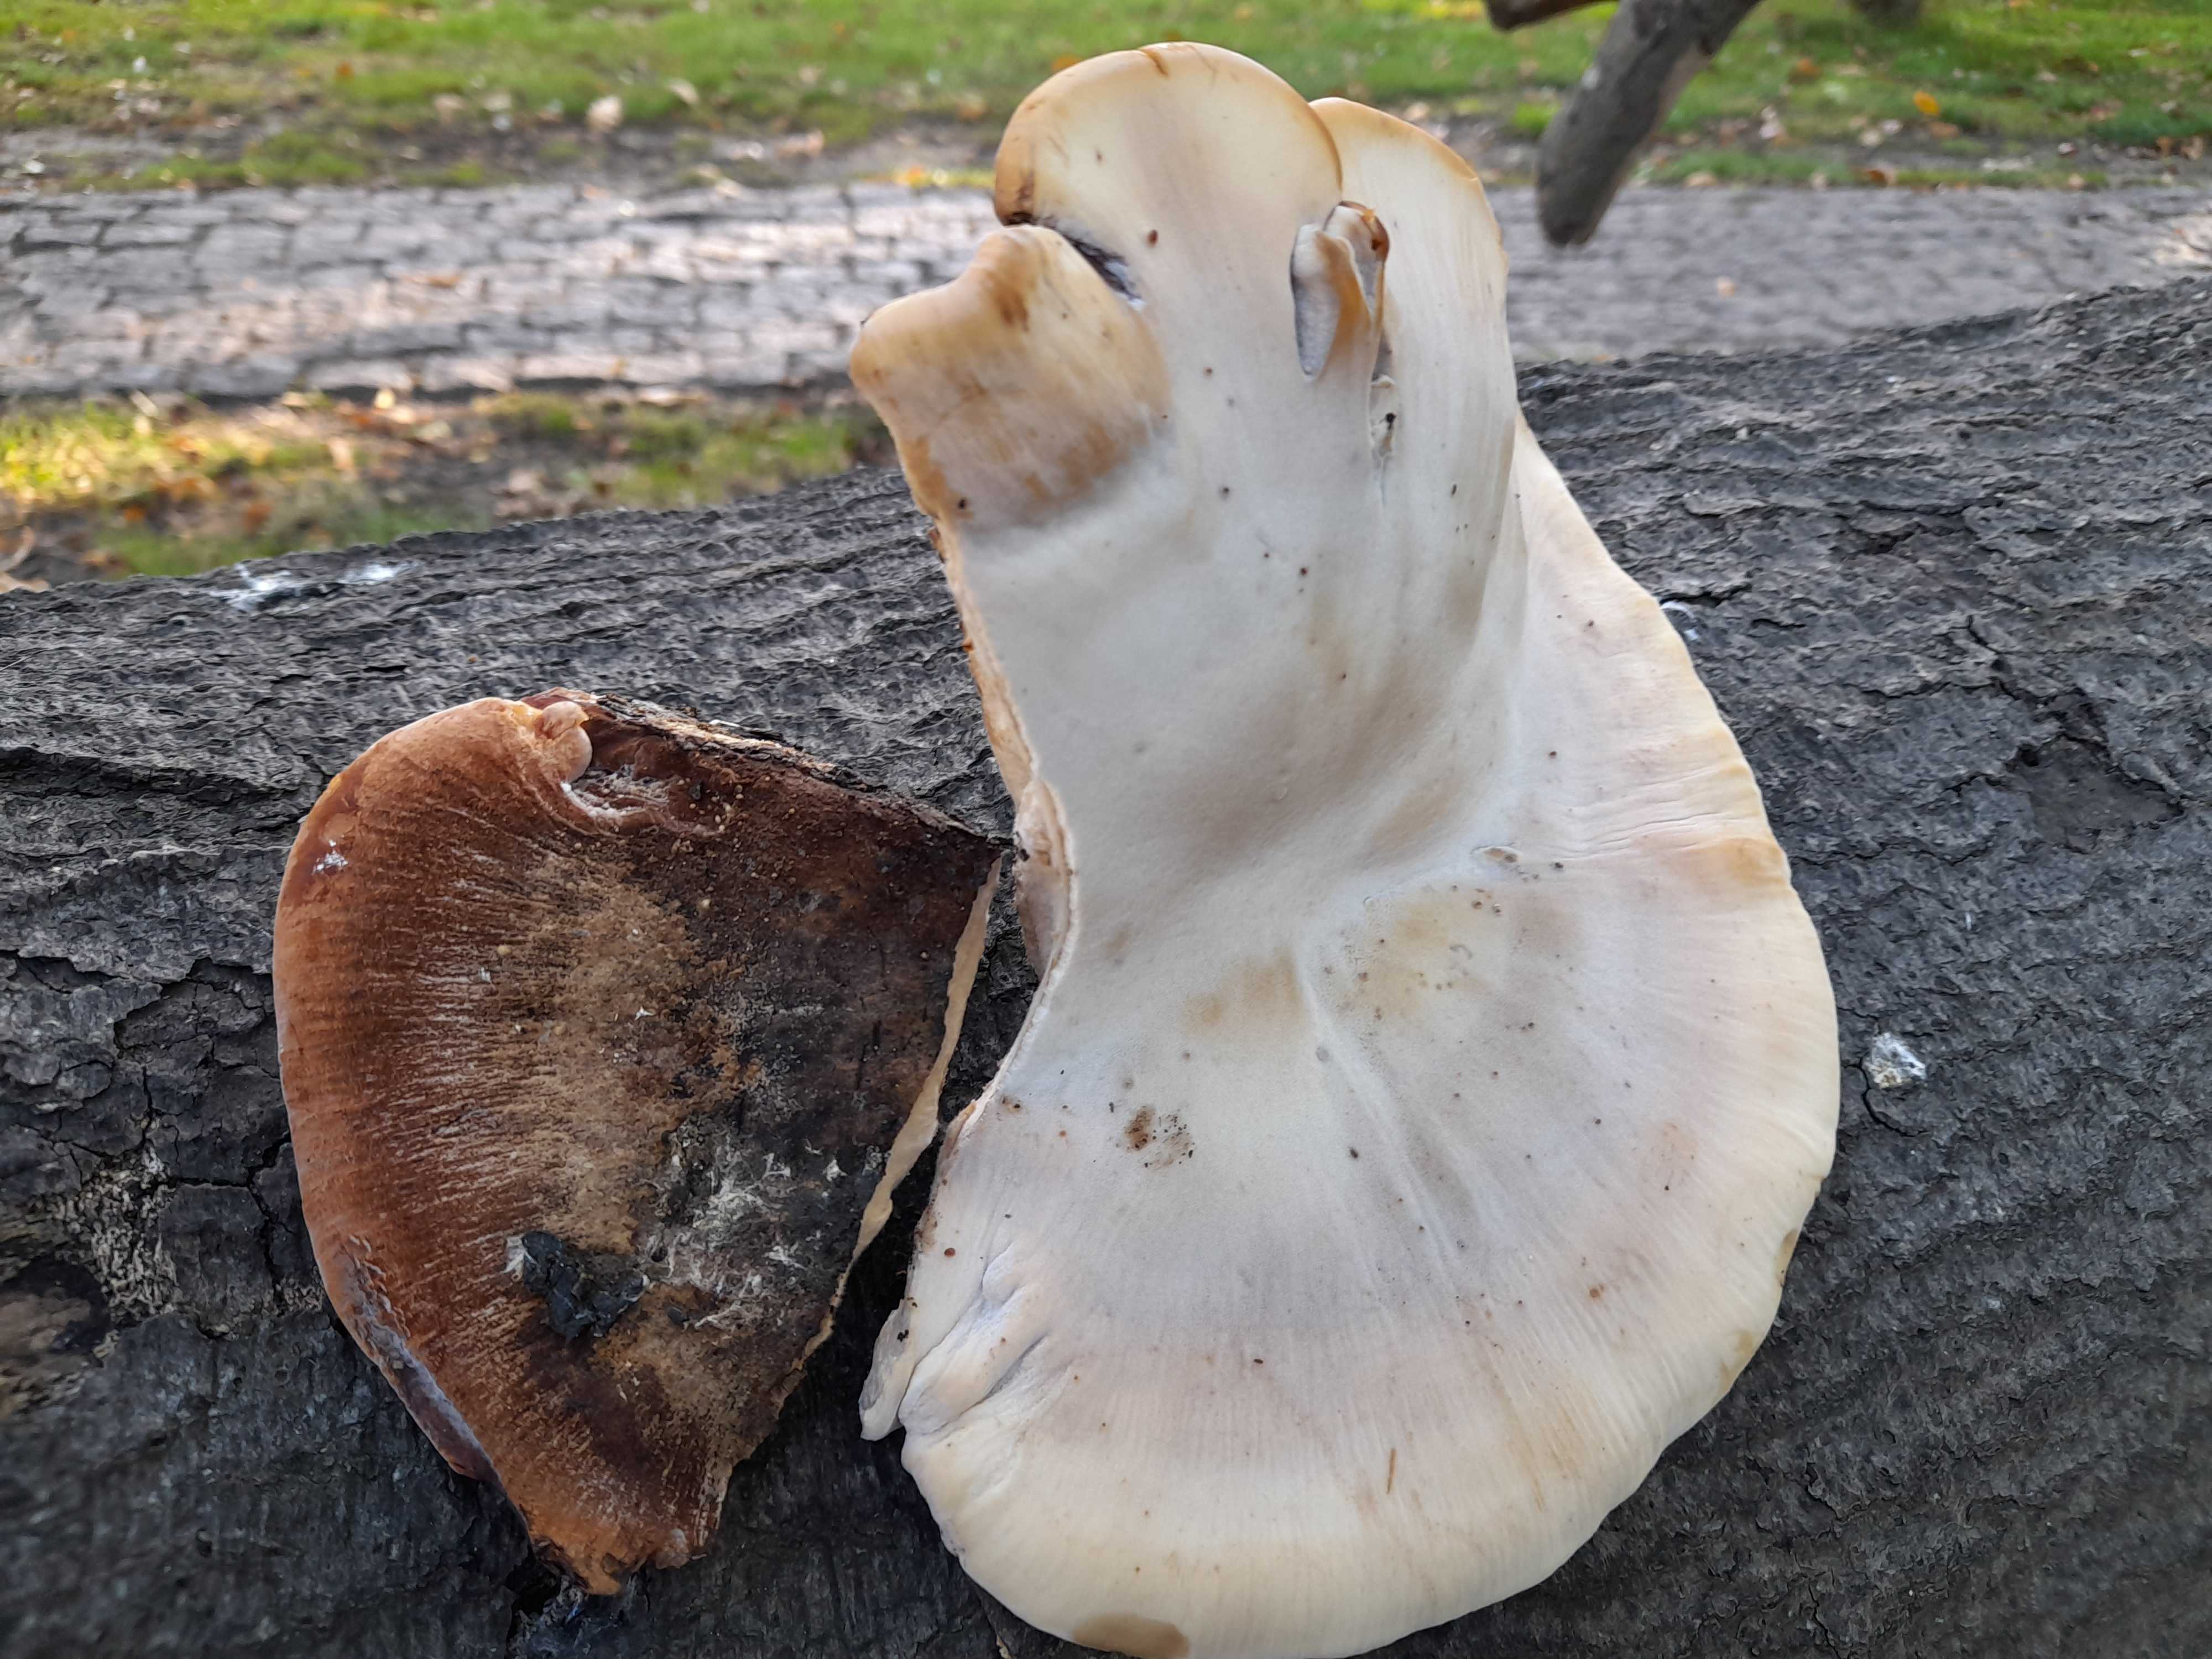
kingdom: Fungi
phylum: Basidiomycota
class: Agaricomycetes
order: Polyporales
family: Ischnodermataceae
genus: Ischnoderma
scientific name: Ischnoderma resinosum
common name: løv-tjæreporesvamp
